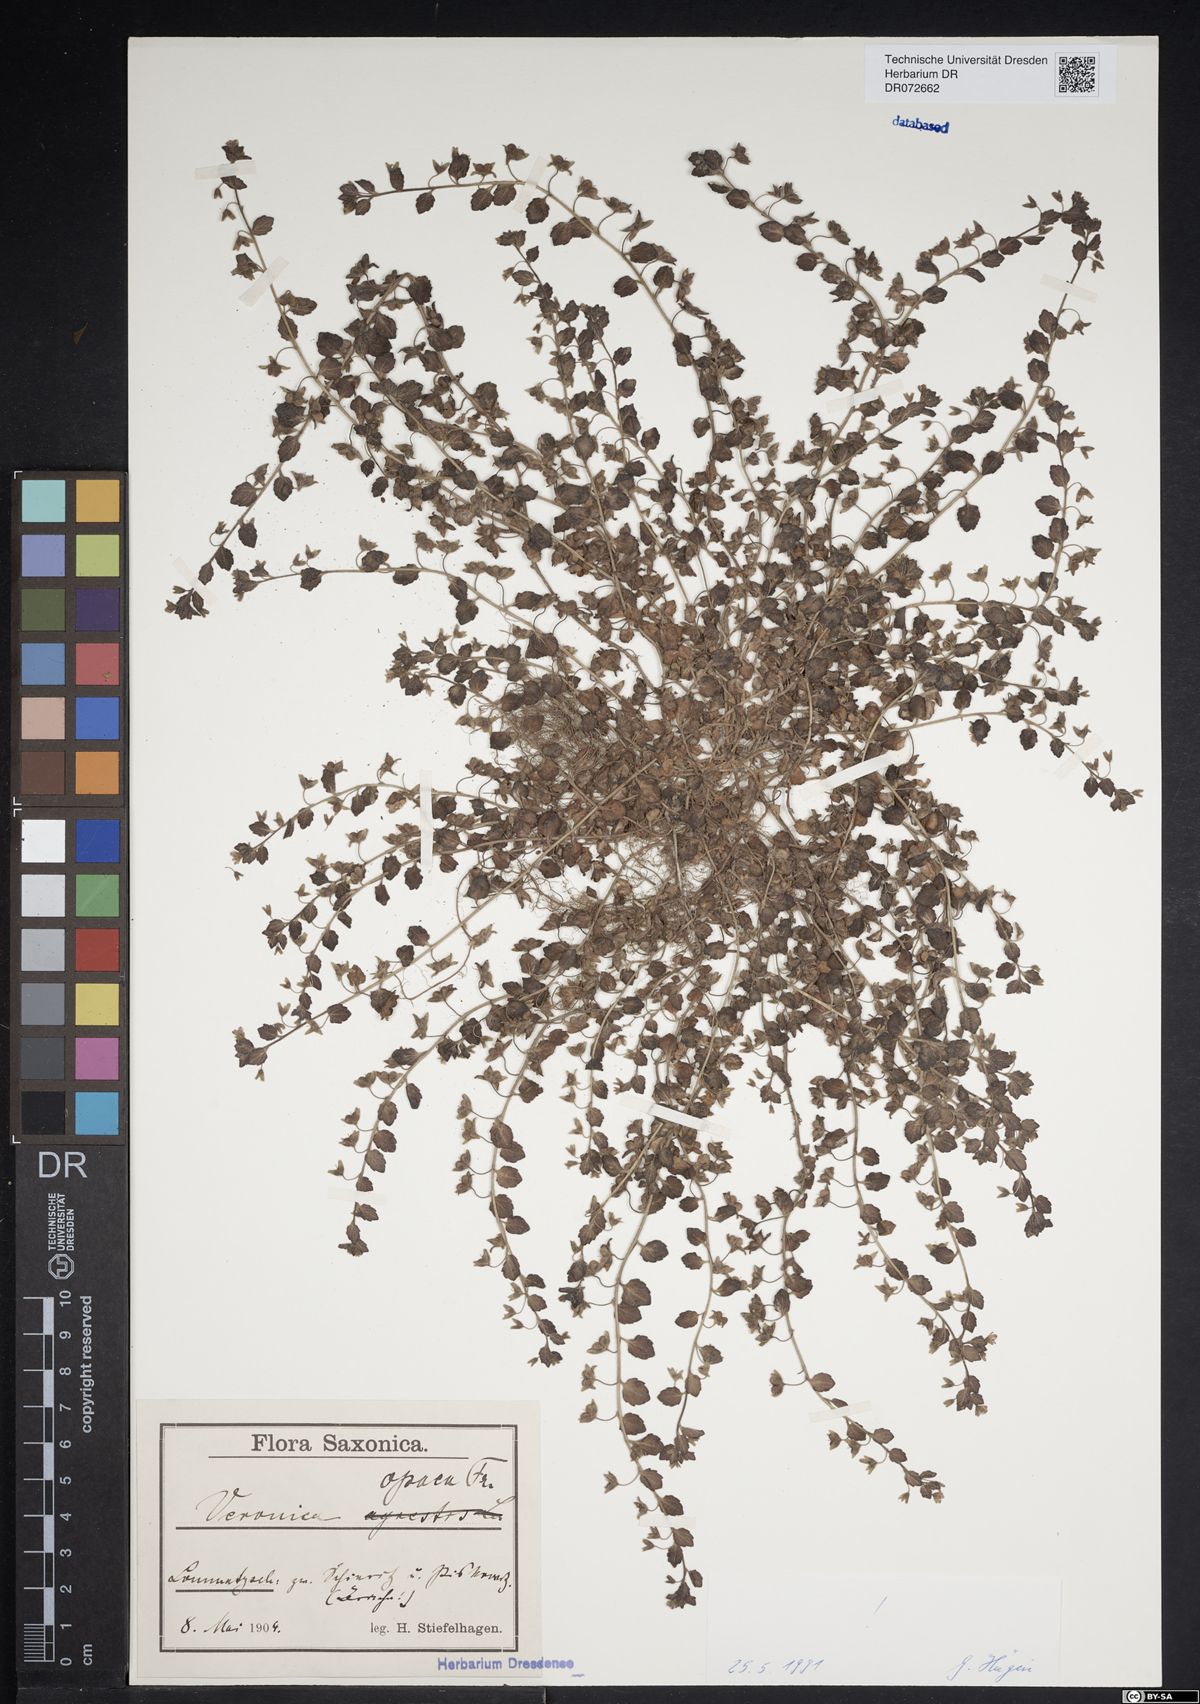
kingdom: Plantae
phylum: Tracheophyta
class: Magnoliopsida
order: Lamiales
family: Plantaginaceae
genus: Veronica
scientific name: Veronica opaca
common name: Dark speedwell
